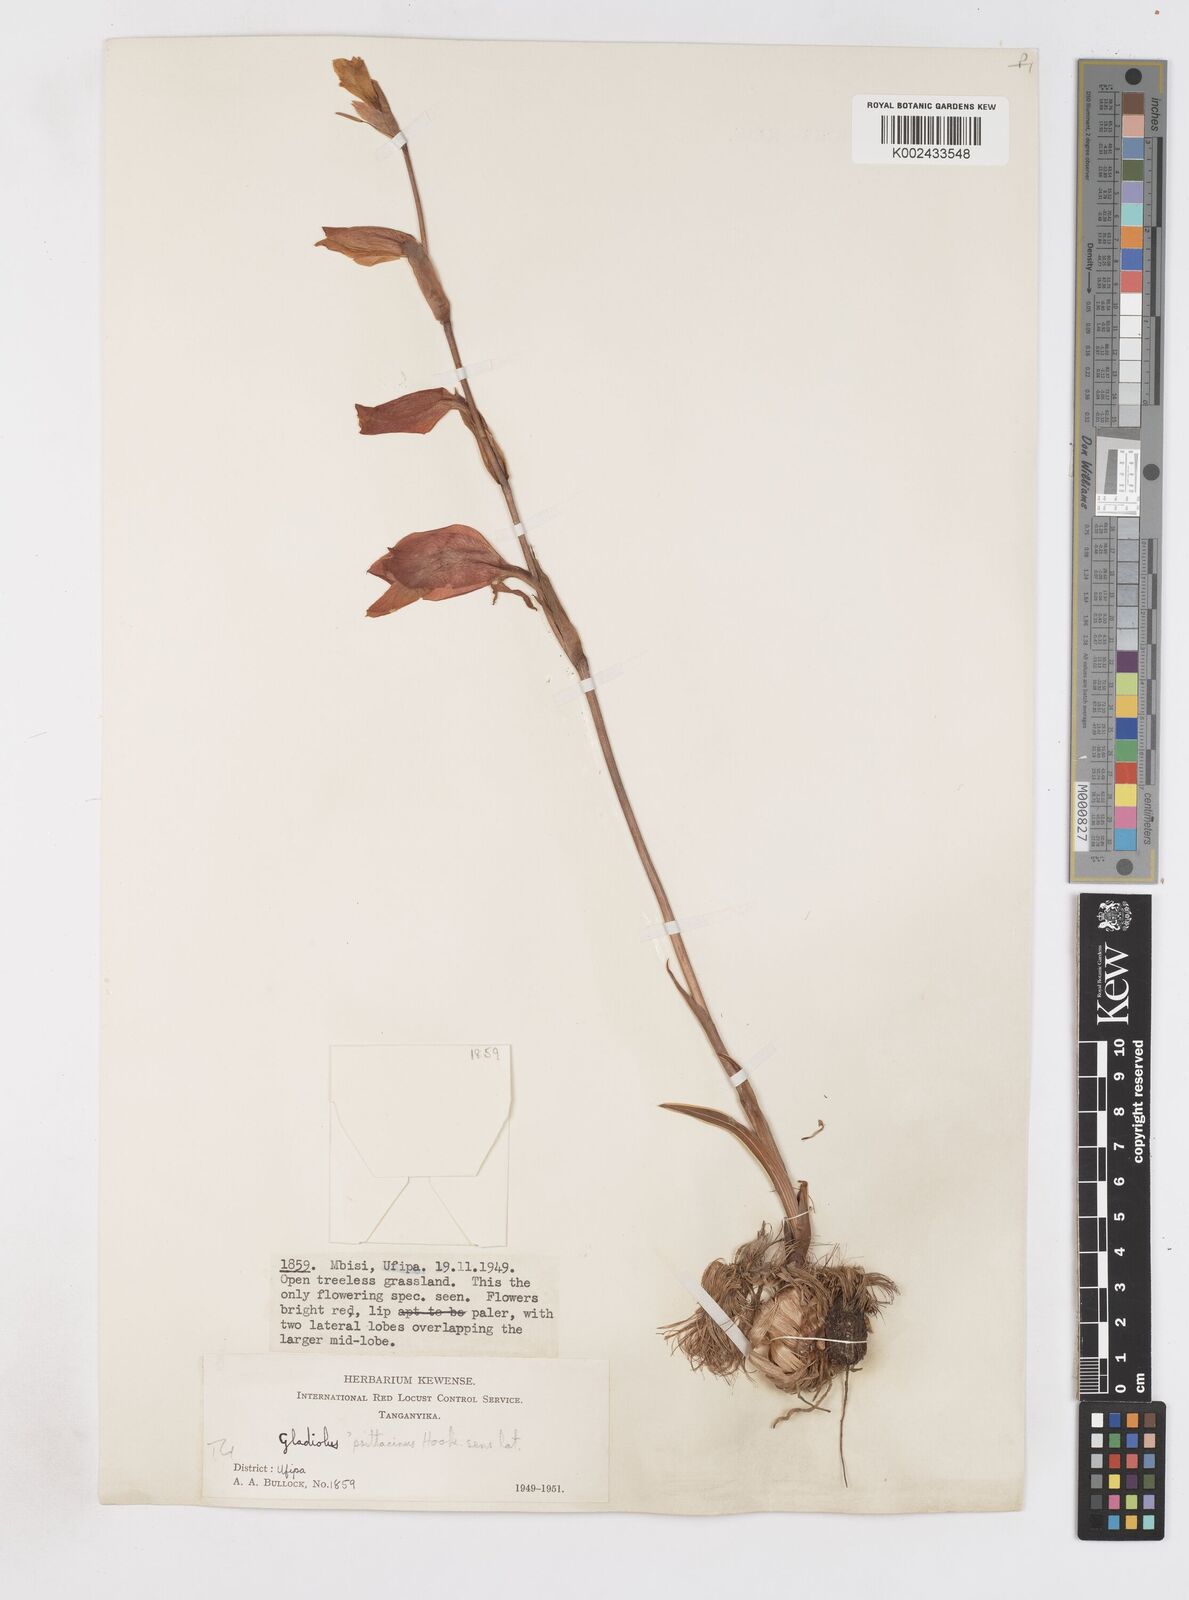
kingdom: Plantae
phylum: Tracheophyta
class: Liliopsida
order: Asparagales
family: Iridaceae
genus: Gladiolus
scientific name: Gladiolus dalenii
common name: Cornflag
